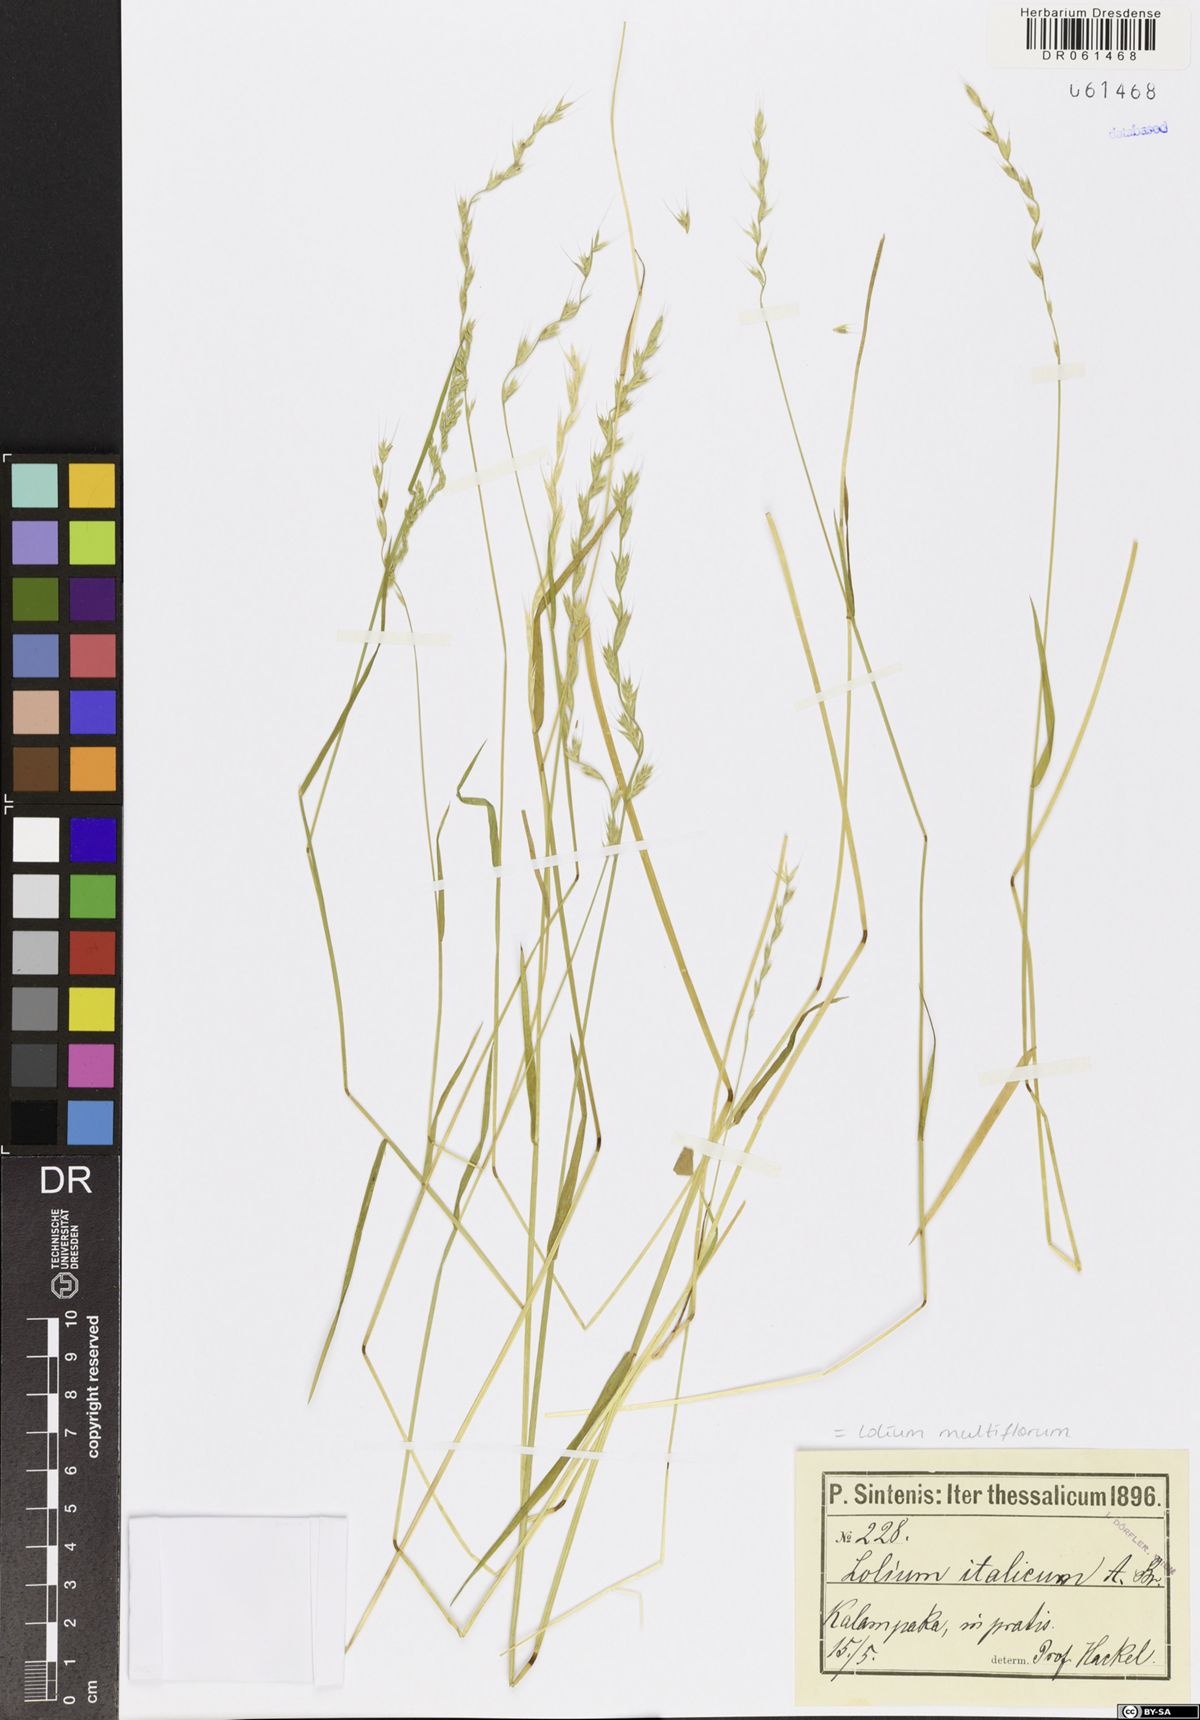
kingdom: Plantae
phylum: Tracheophyta
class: Liliopsida
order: Poales
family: Poaceae
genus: Lolium
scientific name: Lolium multiflorum
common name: Annual ryegrass
